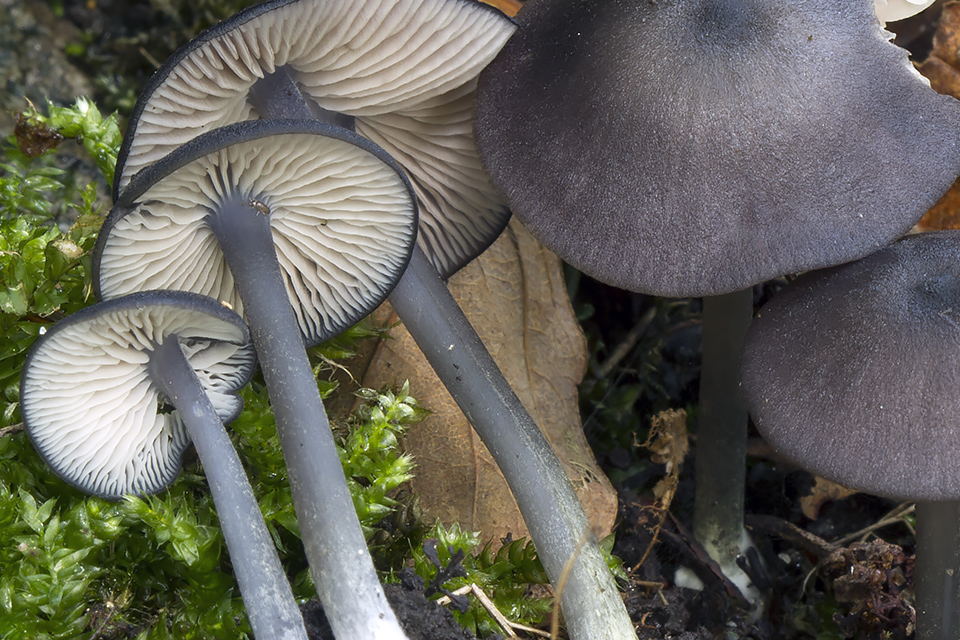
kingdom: Fungi
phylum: Basidiomycota
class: Agaricomycetes
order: Agaricales
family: Entolomataceae
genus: Entoloma
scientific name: Entoloma erhardii
